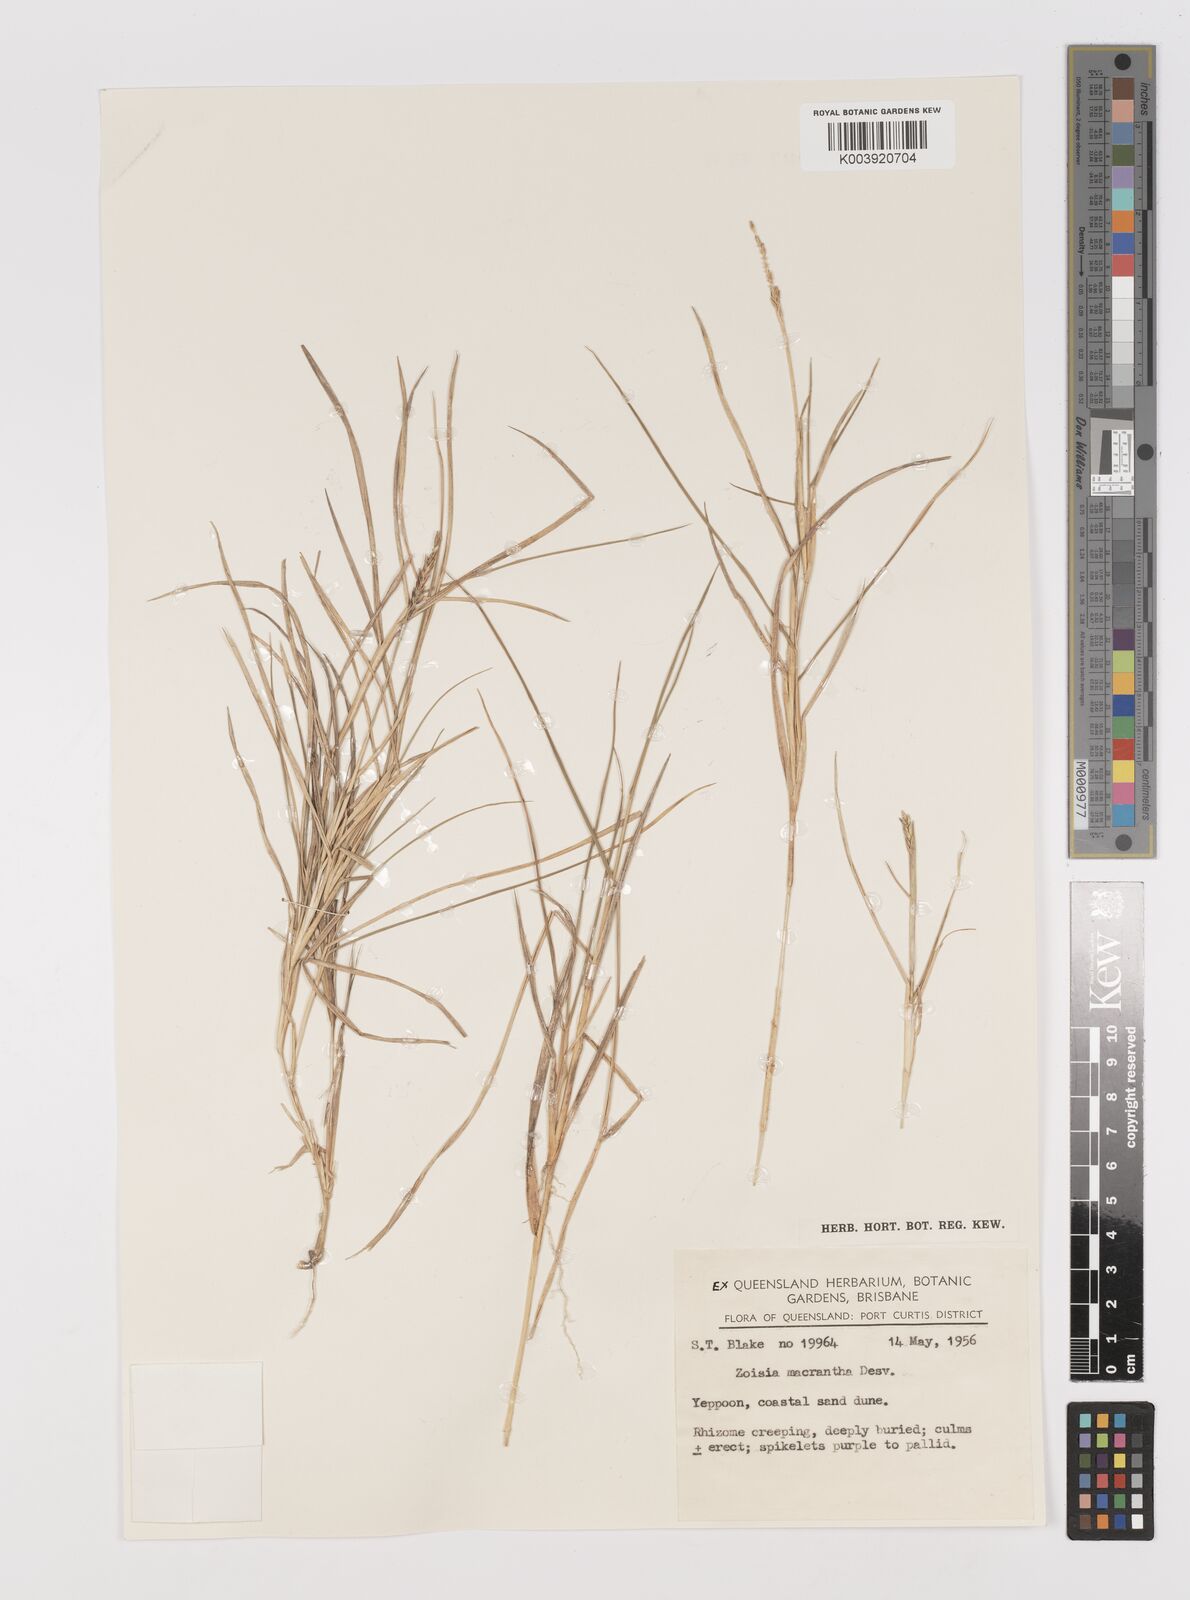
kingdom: Plantae
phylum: Tracheophyta
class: Liliopsida
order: Poales
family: Poaceae
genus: Zoysia
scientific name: Zoysia macrantha
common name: Korean lawn grass
